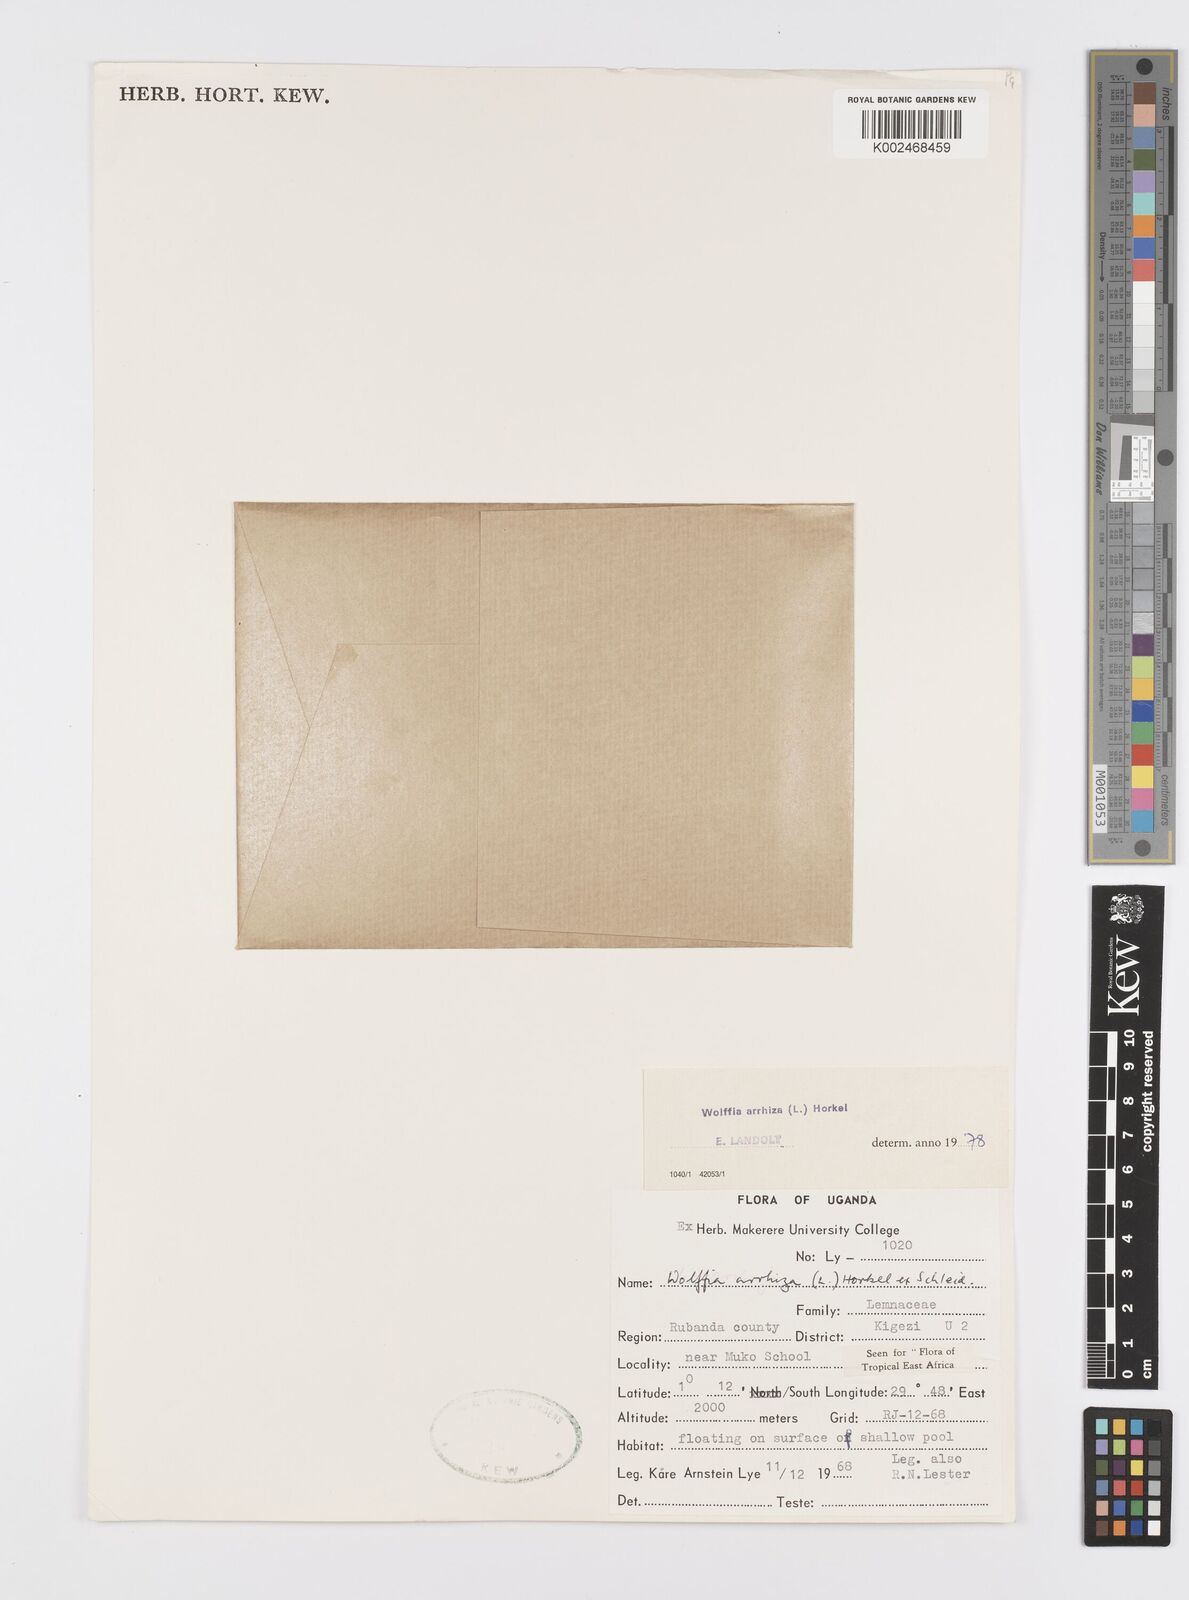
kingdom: Plantae
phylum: Tracheophyta
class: Liliopsida
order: Alismatales
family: Araceae
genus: Wolffia
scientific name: Wolffia arrhiza
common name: Rootless duckweed
